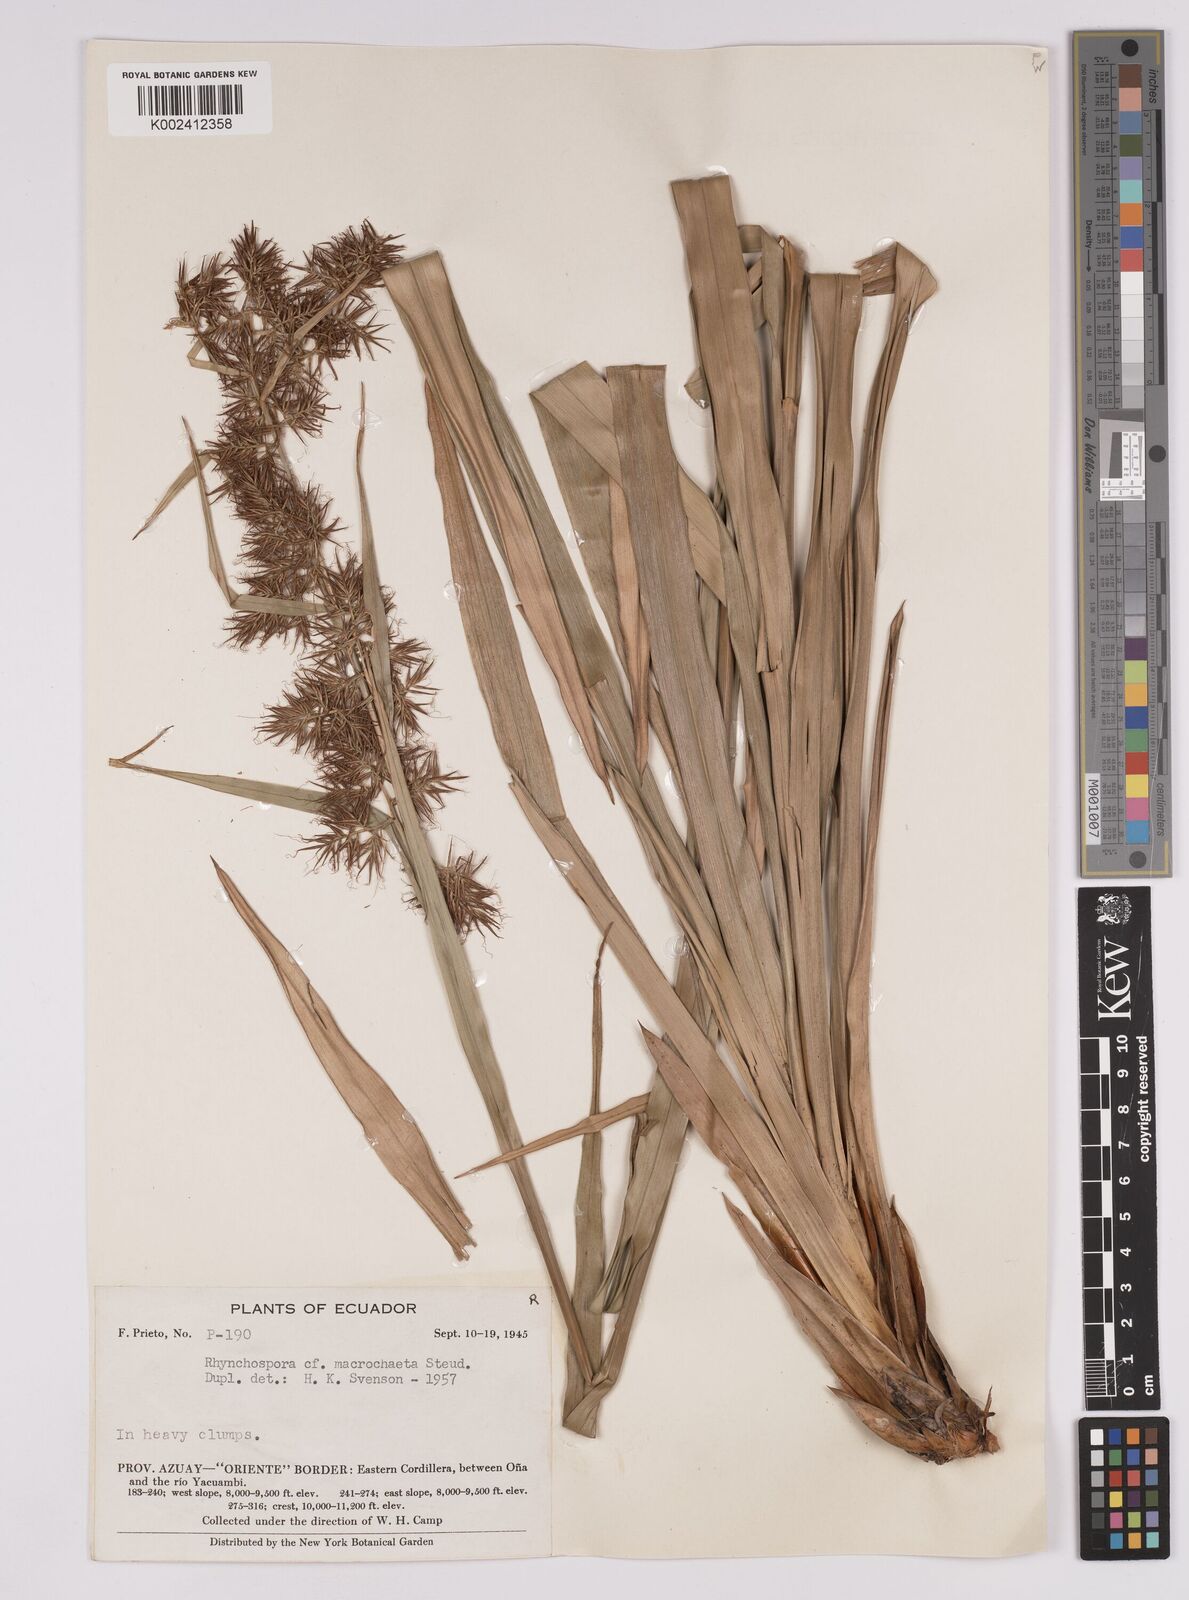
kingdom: Plantae
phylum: Tracheophyta
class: Liliopsida
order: Poales
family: Cyperaceae
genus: Rhynchospora
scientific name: Rhynchospora macrochaeta
